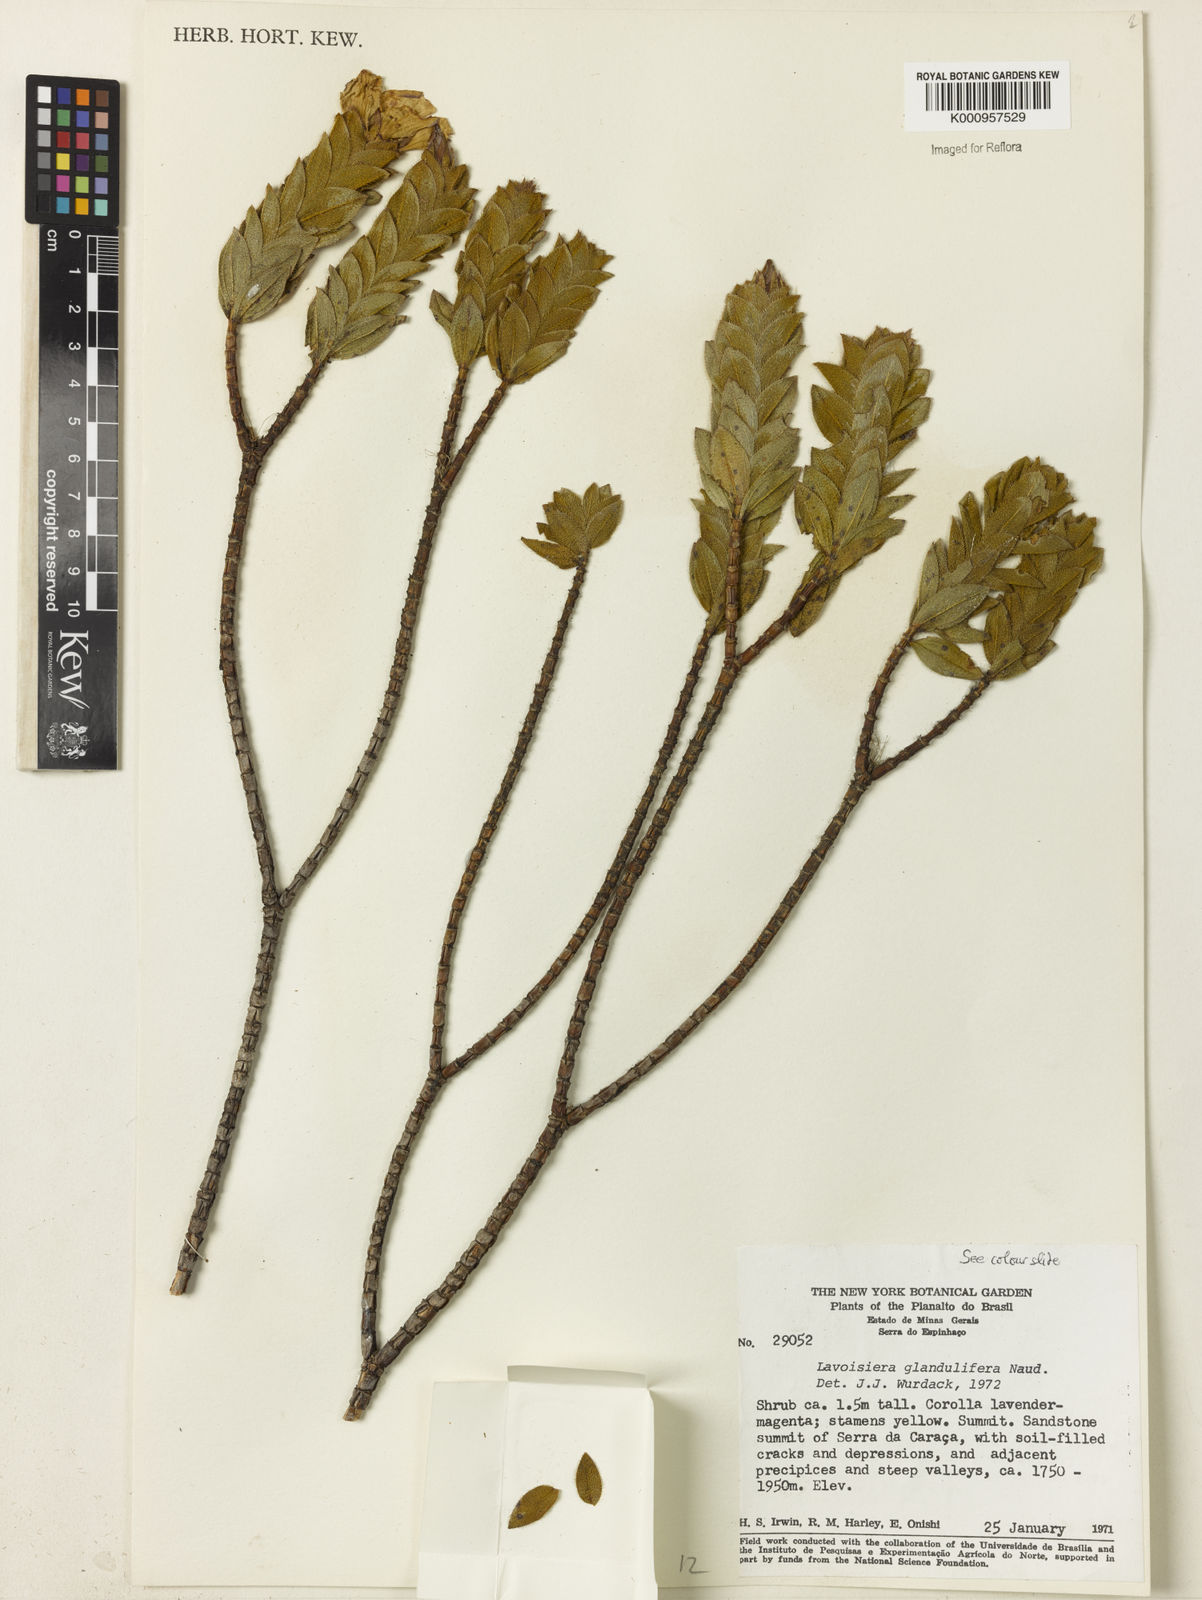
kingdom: Plantae
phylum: Tracheophyta
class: Magnoliopsida
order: Myrtales
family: Melastomataceae
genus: Microlicia
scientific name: Microlicia glandulifolia
